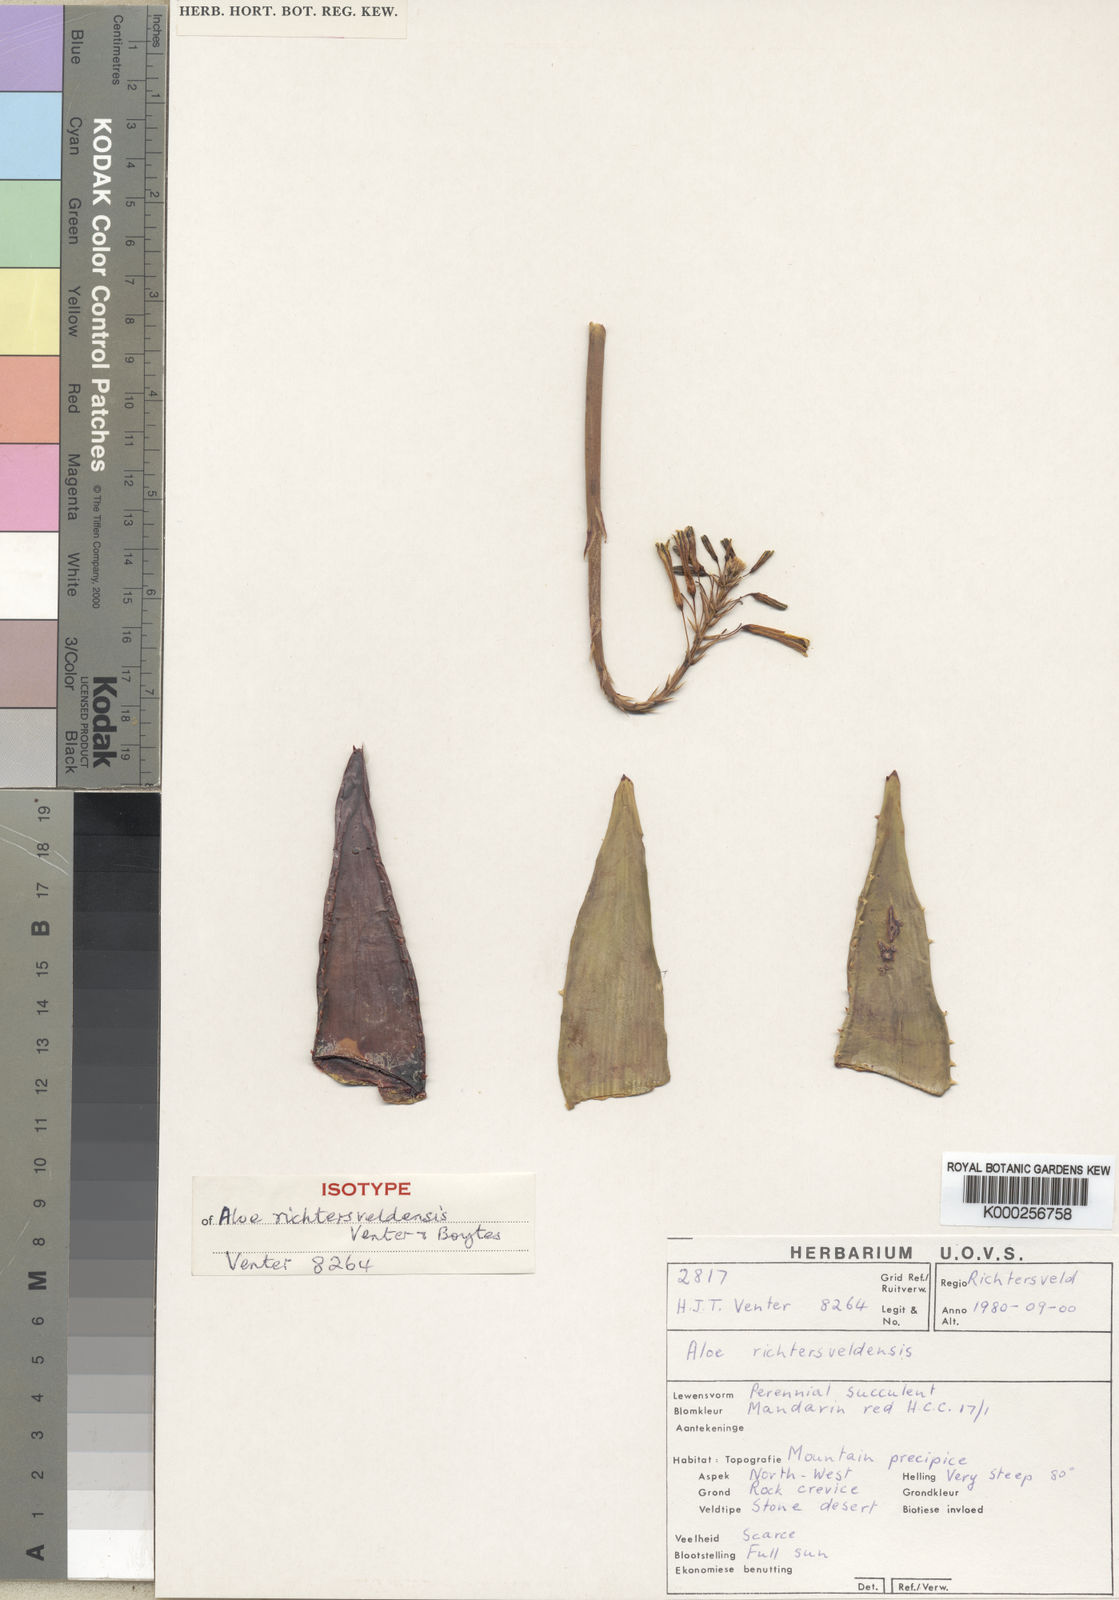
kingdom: Plantae
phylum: Tracheophyta
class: Liliopsida
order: Asparagales
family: Asphodelaceae
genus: Aloe
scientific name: Aloe meyeri
